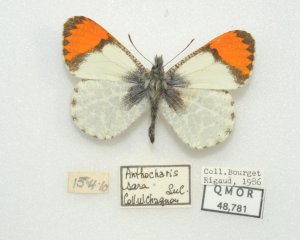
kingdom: Animalia
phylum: Arthropoda
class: Insecta
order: Lepidoptera
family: Pieridae
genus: Anthocharis
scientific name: Anthocharis sara
